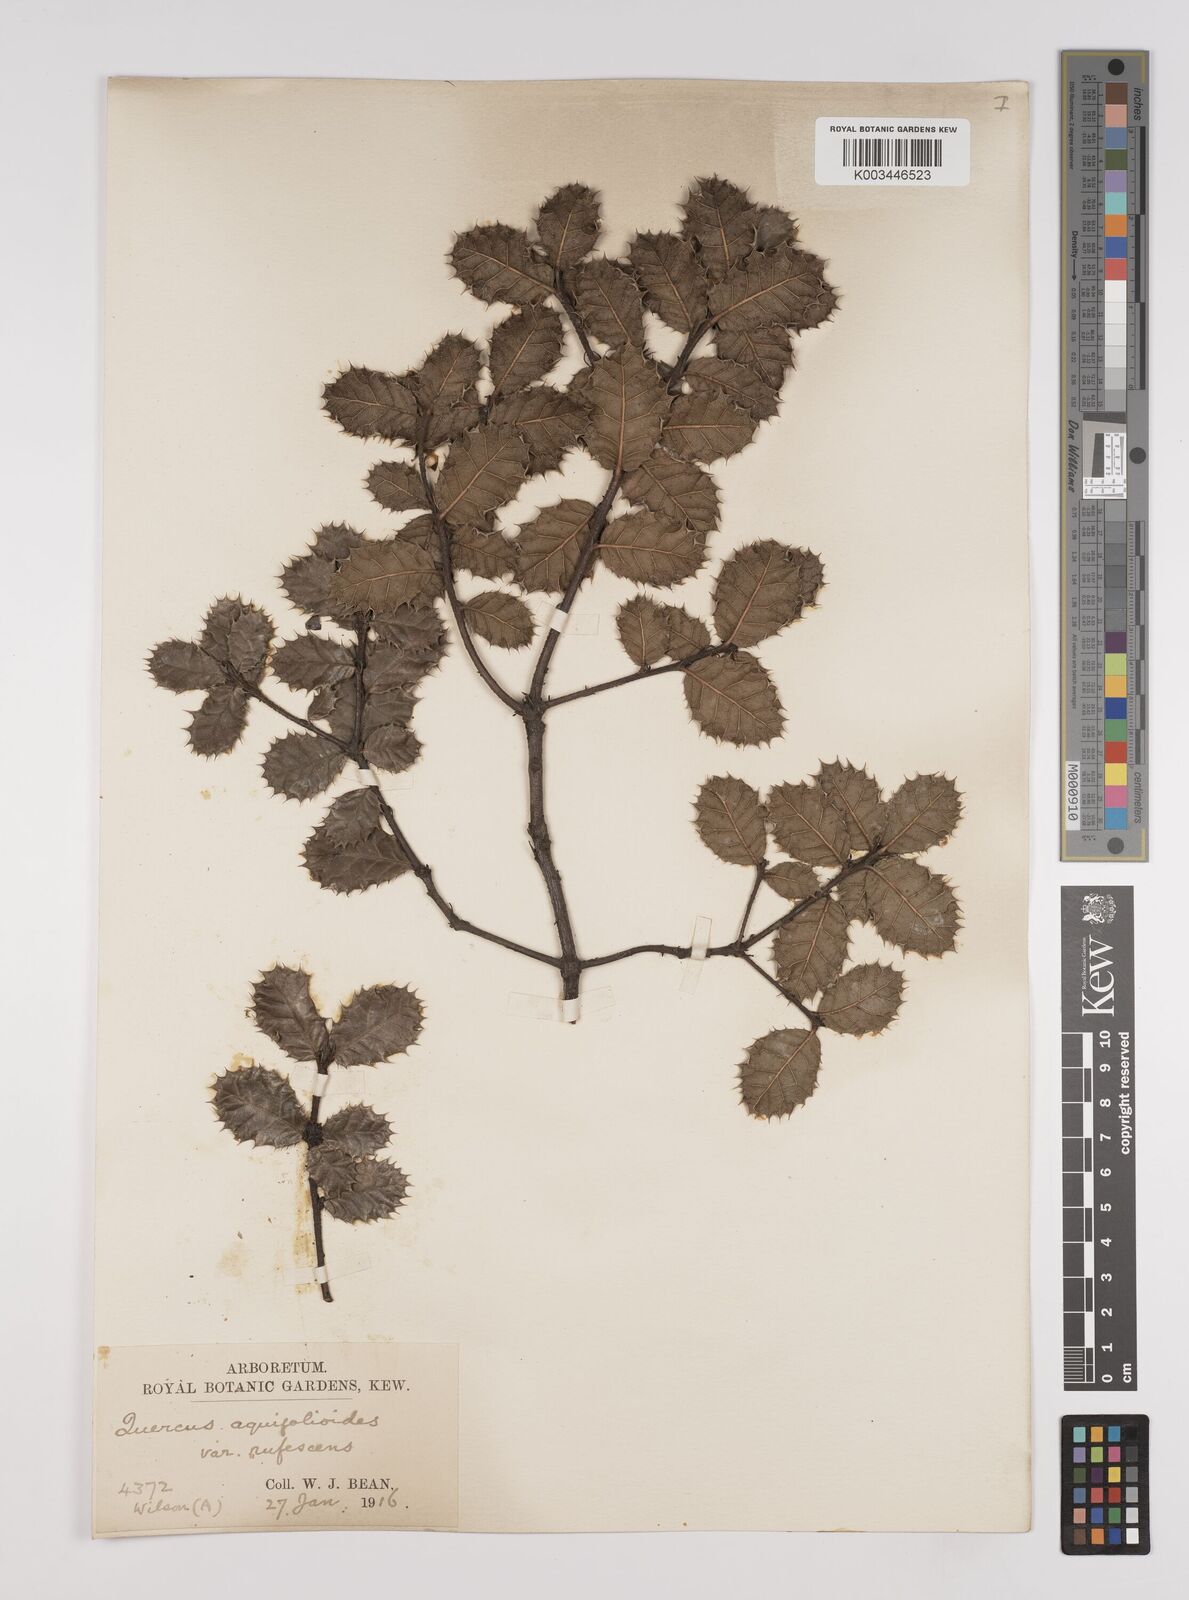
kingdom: Plantae
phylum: Tracheophyta
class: Magnoliopsida
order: Fagales
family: Fagaceae
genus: Quercus
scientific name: Quercus aquifolioides
